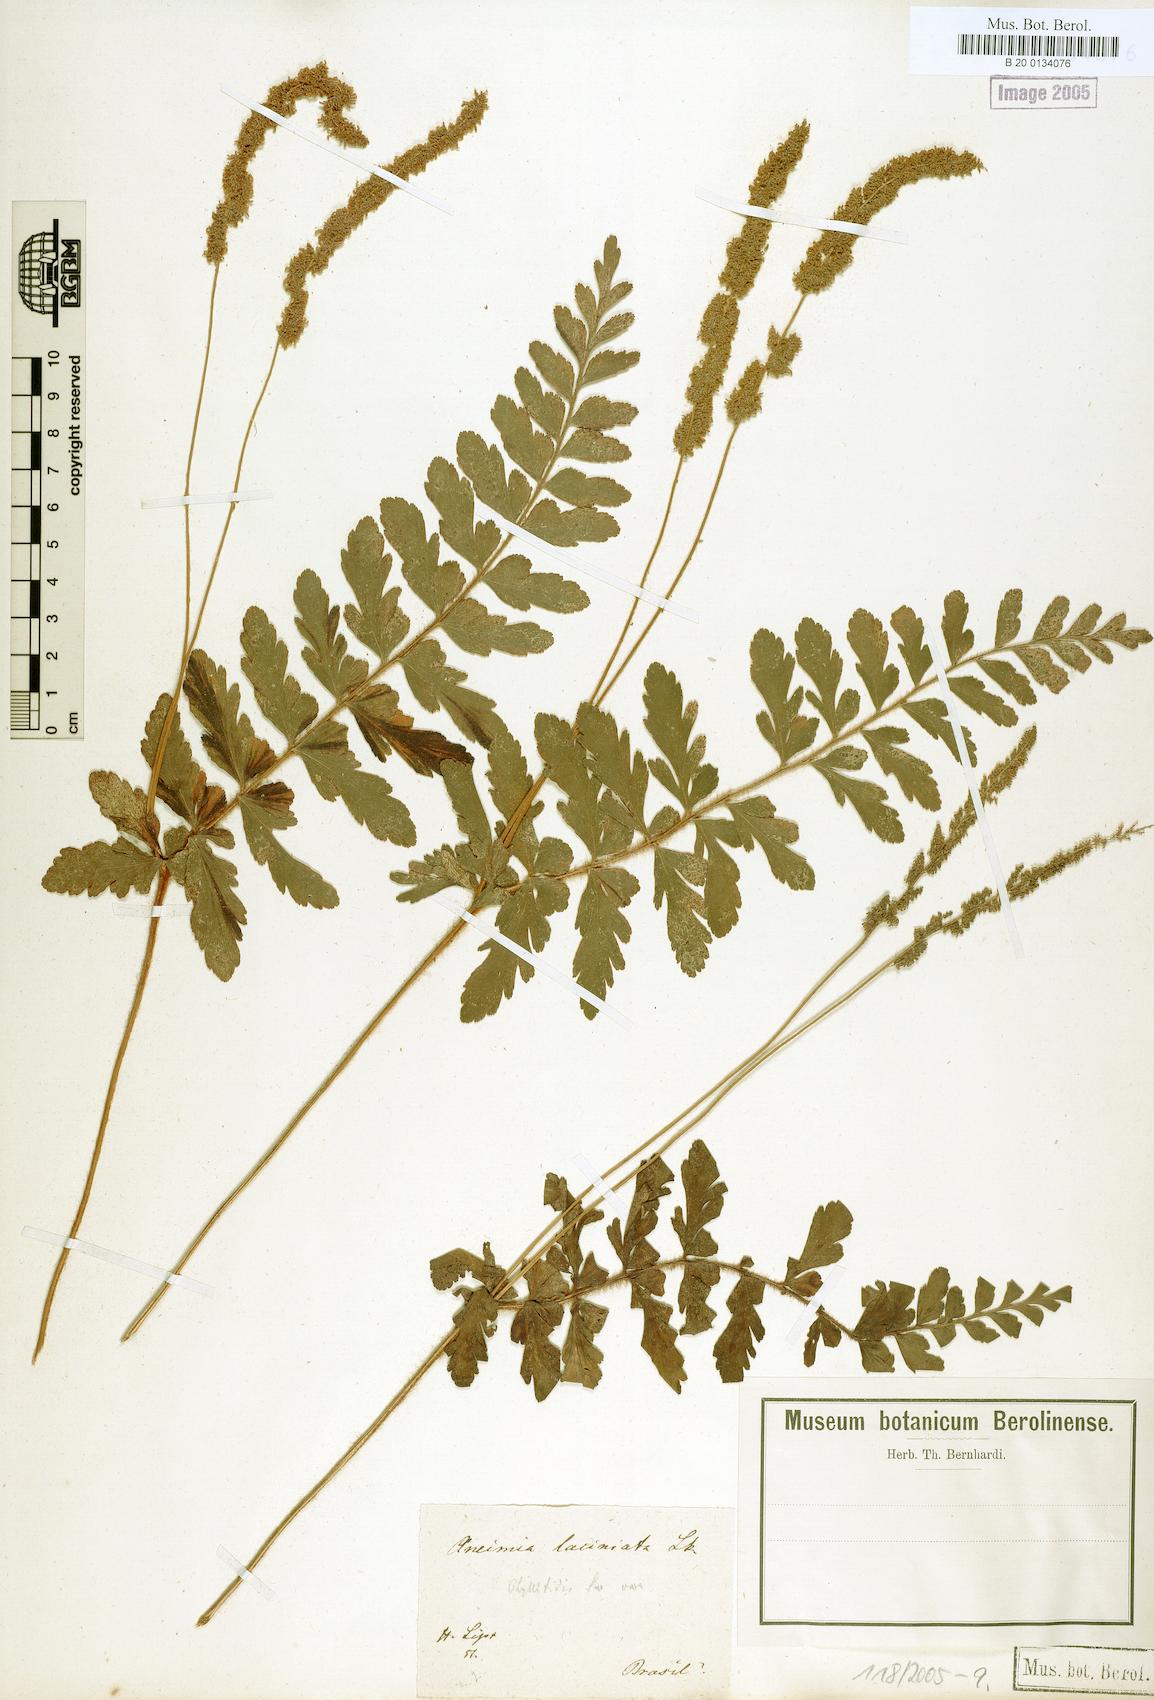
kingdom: Plantae
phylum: Tracheophyta
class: Polypodiopsida
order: Schizaeales
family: Anemiaceae
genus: Anemia
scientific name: Anemia phyllitidis
